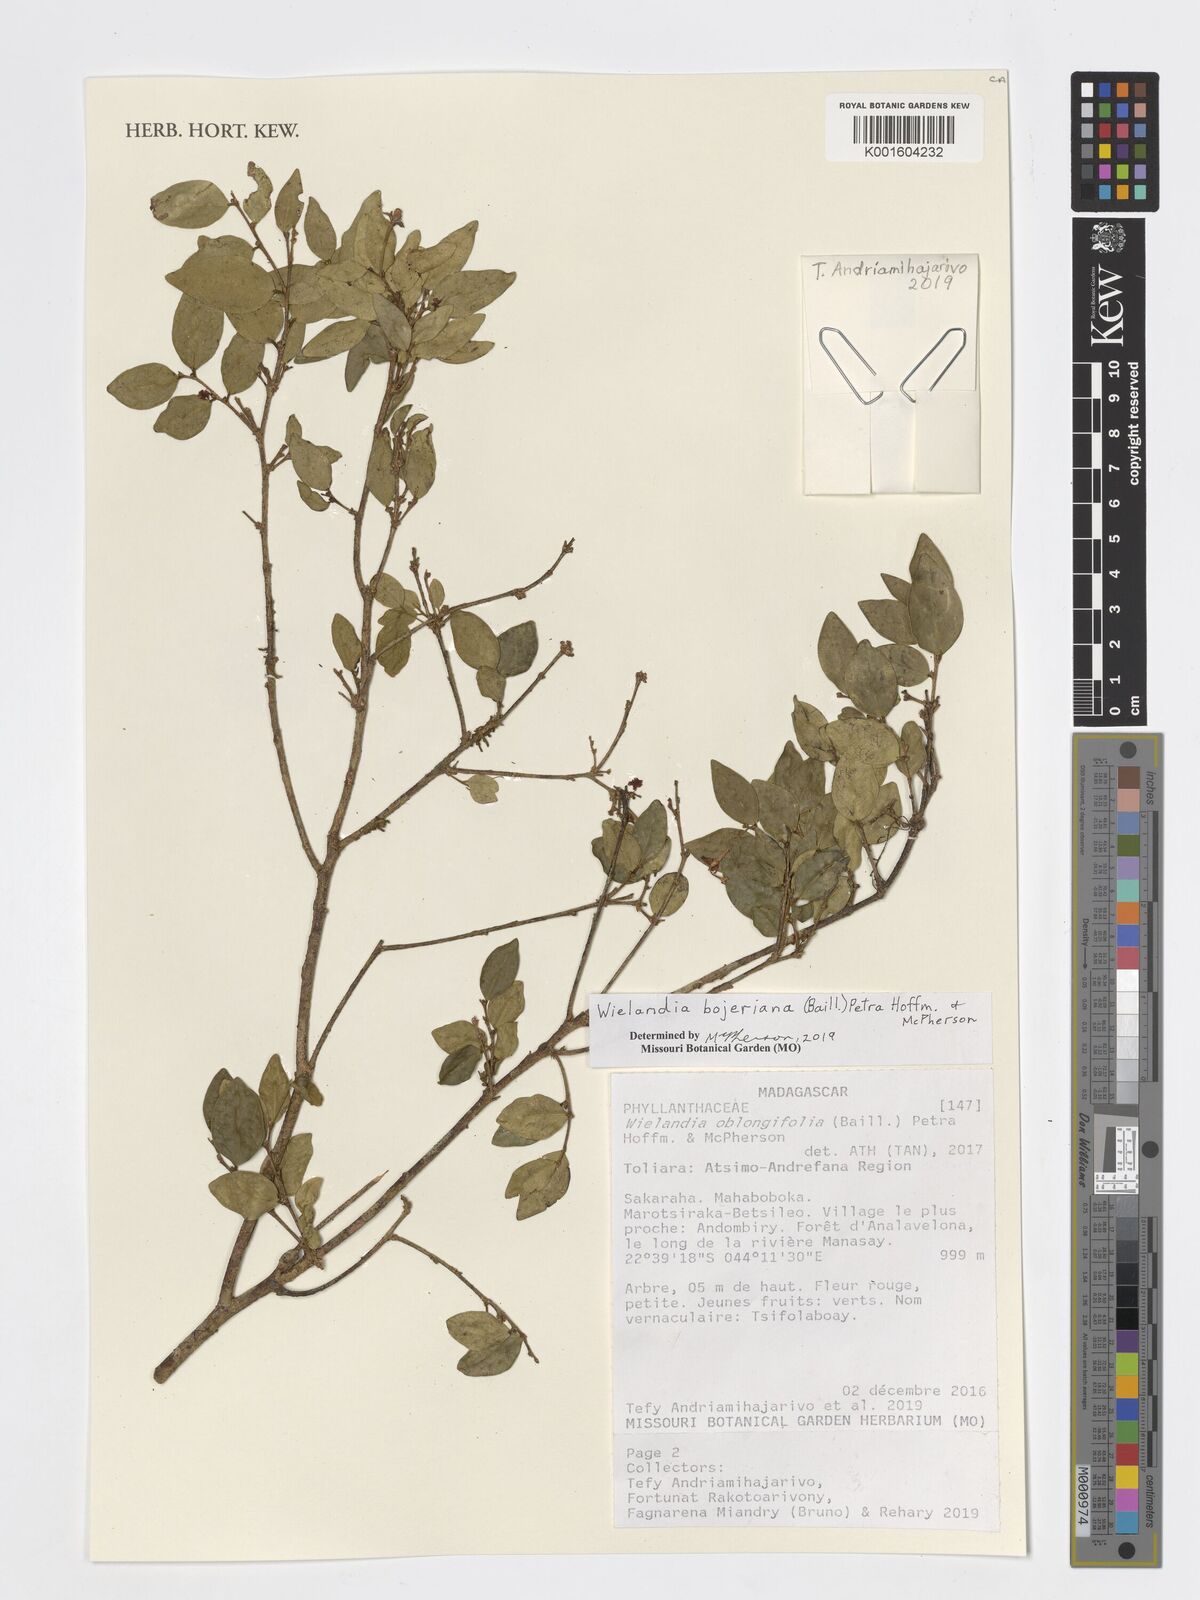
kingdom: Plantae
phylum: Tracheophyta
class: Magnoliopsida
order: Malpighiales
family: Phyllanthaceae
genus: Wielandia
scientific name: Wielandia bojeriana
